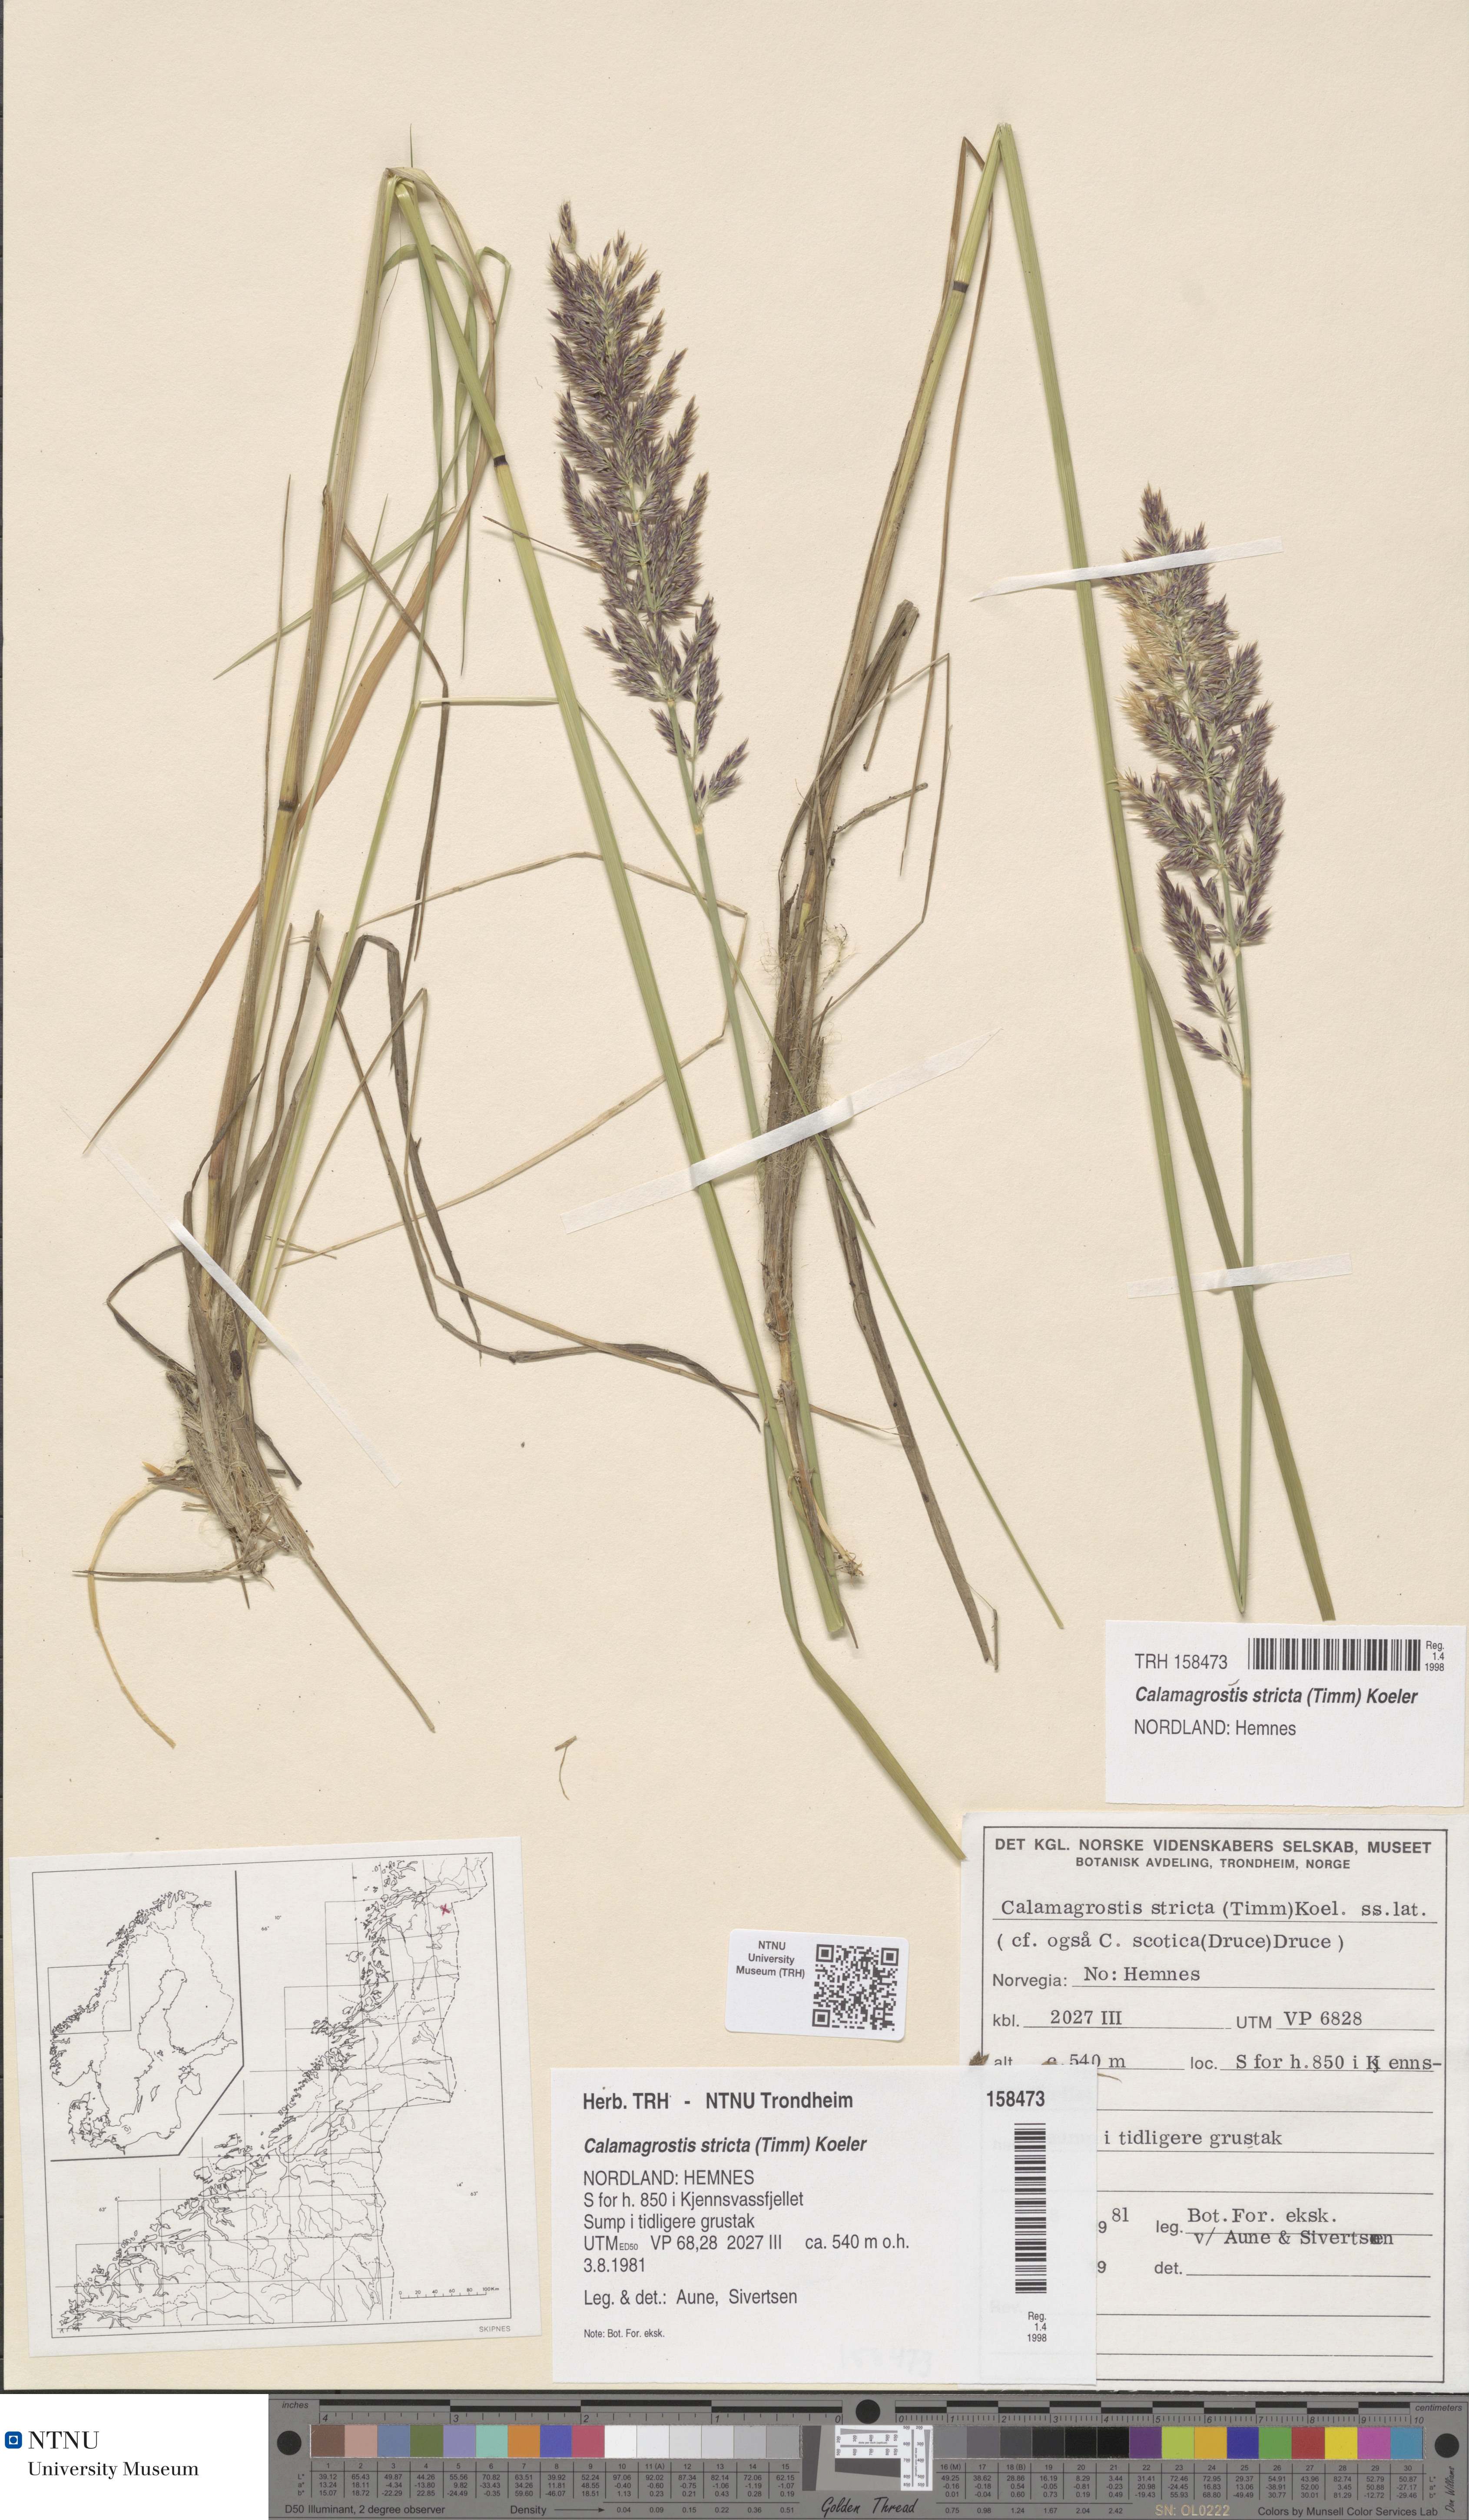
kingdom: Plantae
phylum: Tracheophyta
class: Liliopsida
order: Poales
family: Poaceae
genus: Achnatherum
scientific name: Achnatherum calamagrostis
